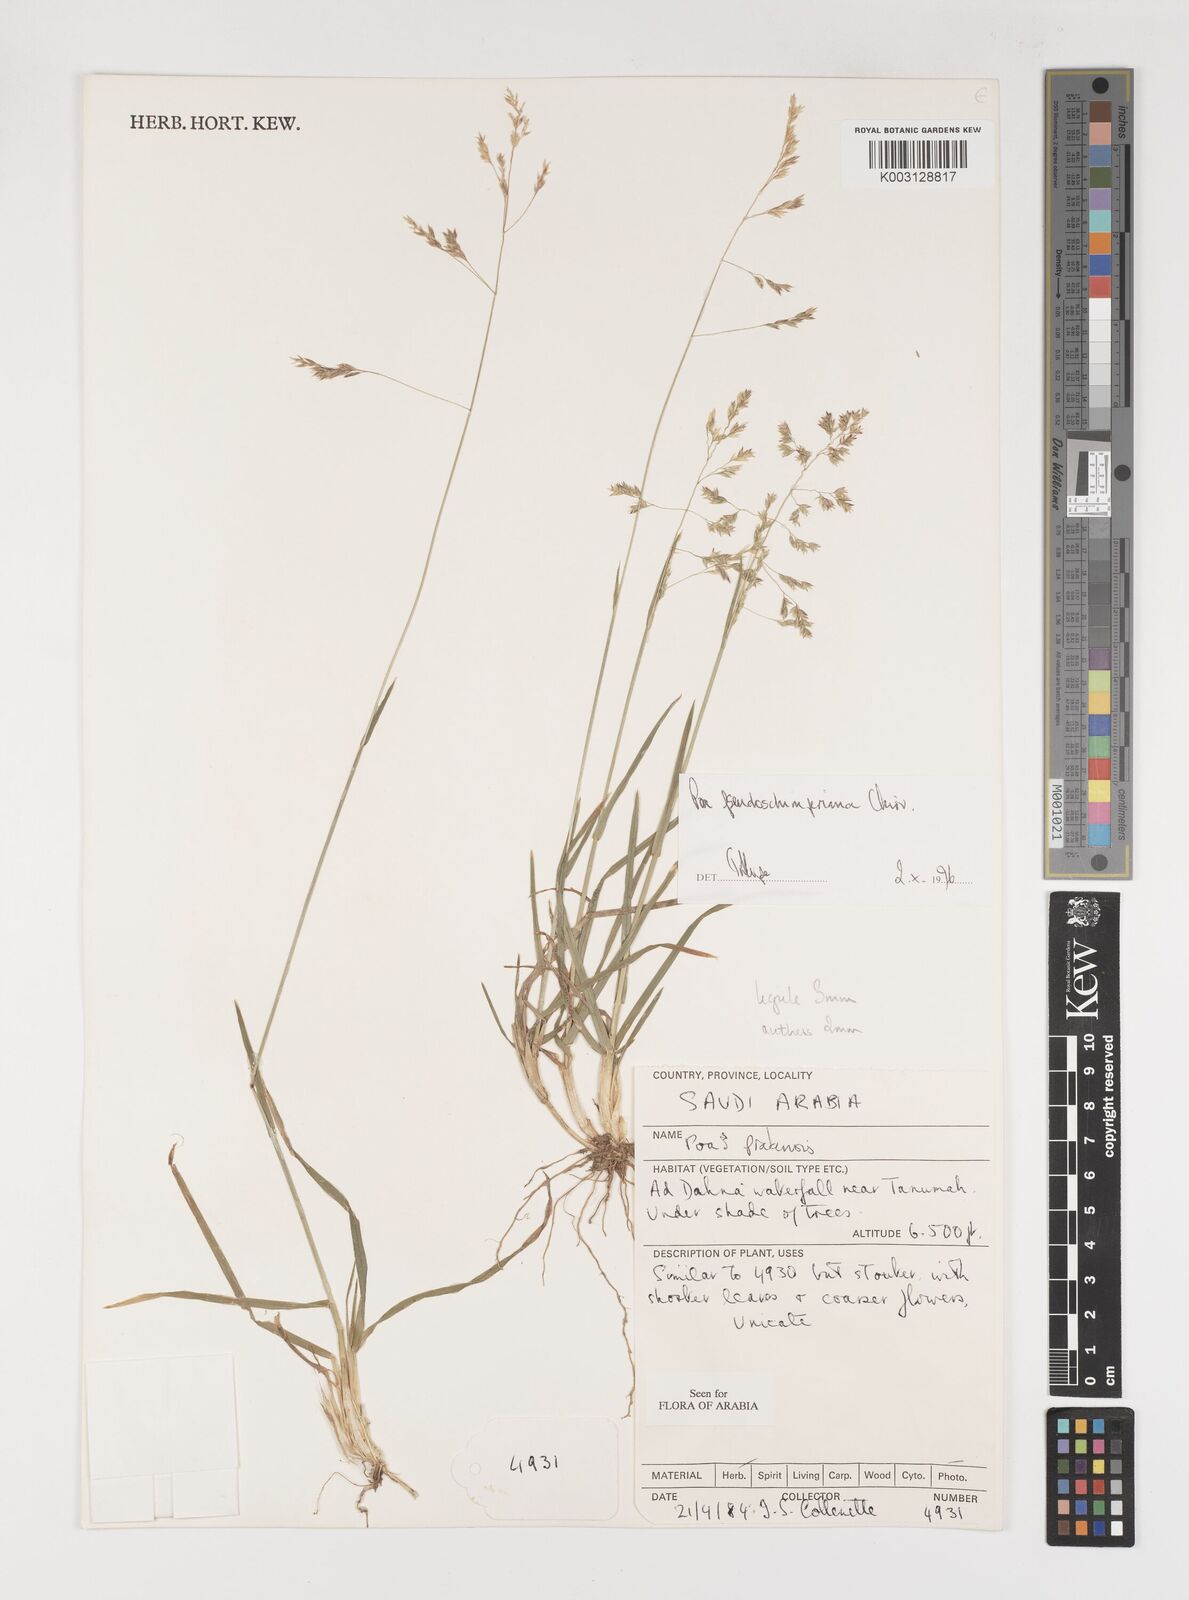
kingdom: Plantae
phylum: Tracheophyta
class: Liliopsida
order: Poales
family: Poaceae
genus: Poa
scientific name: Poa pseudoschimperiana
